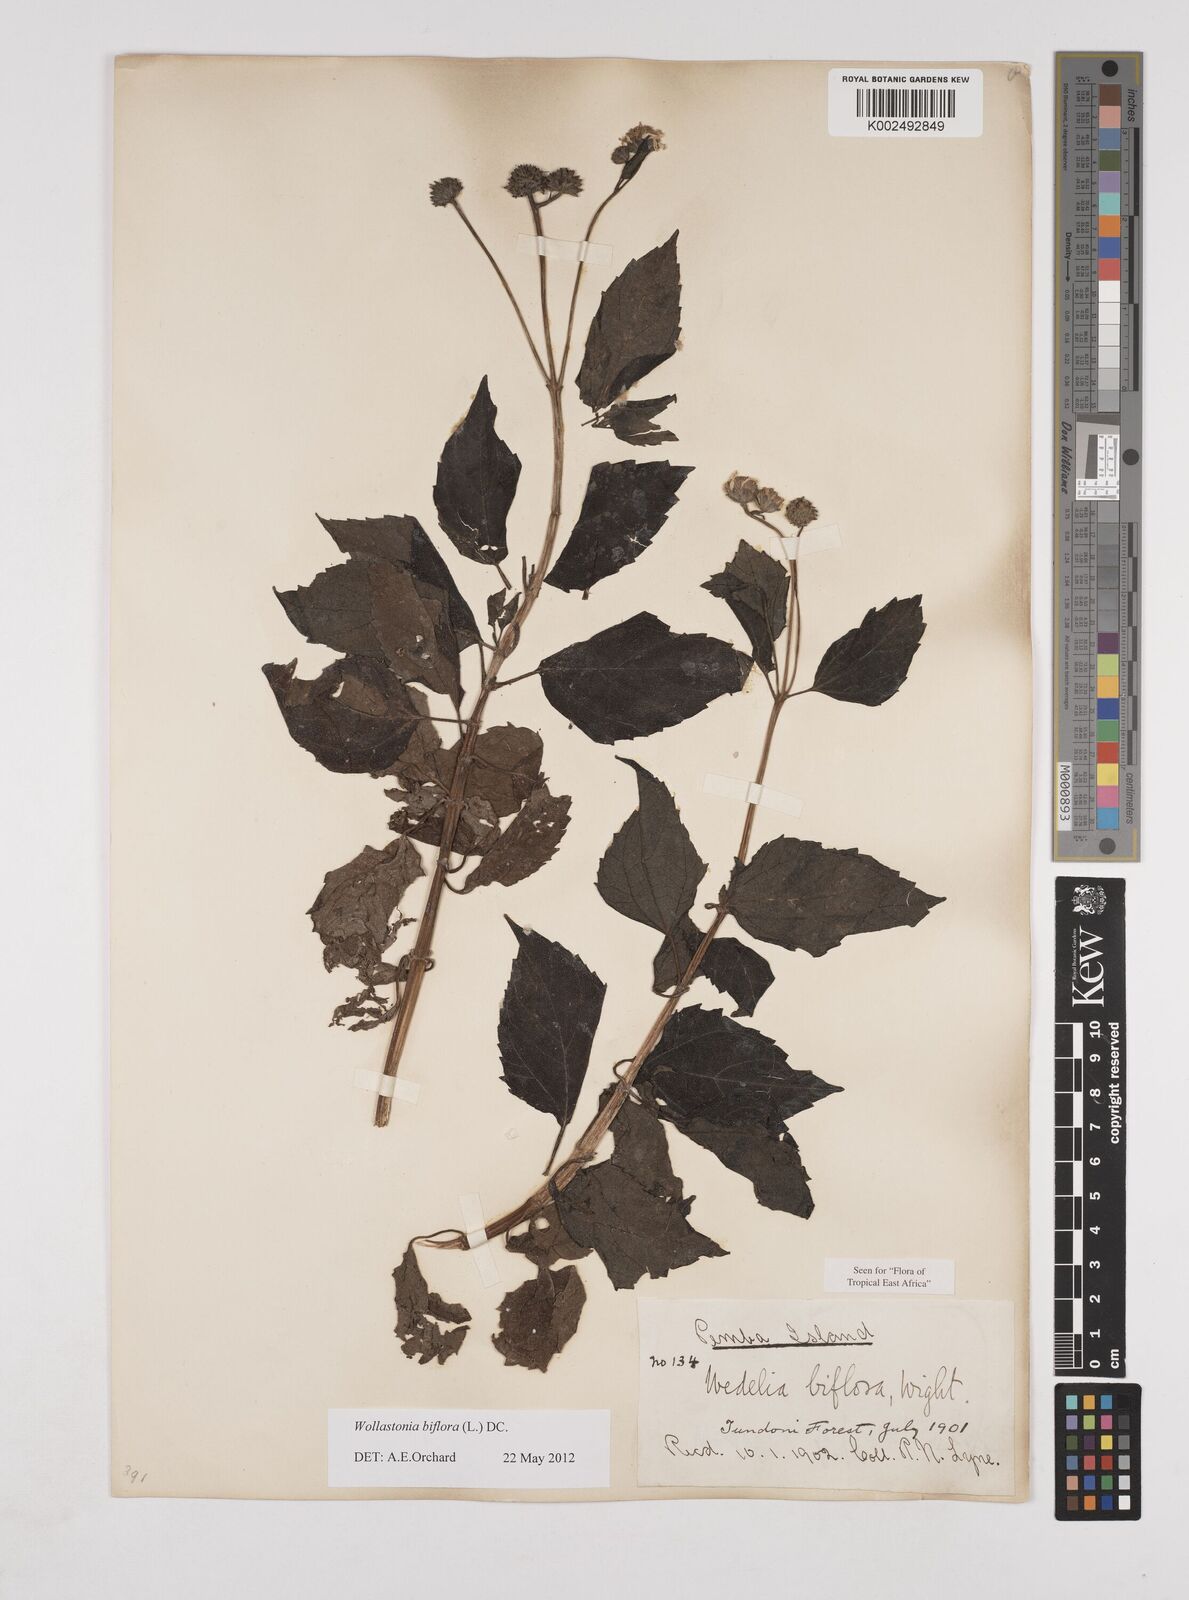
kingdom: Plantae
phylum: Tracheophyta
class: Magnoliopsida
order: Asterales
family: Asteraceae
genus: Wollastonia
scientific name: Wollastonia biflora
